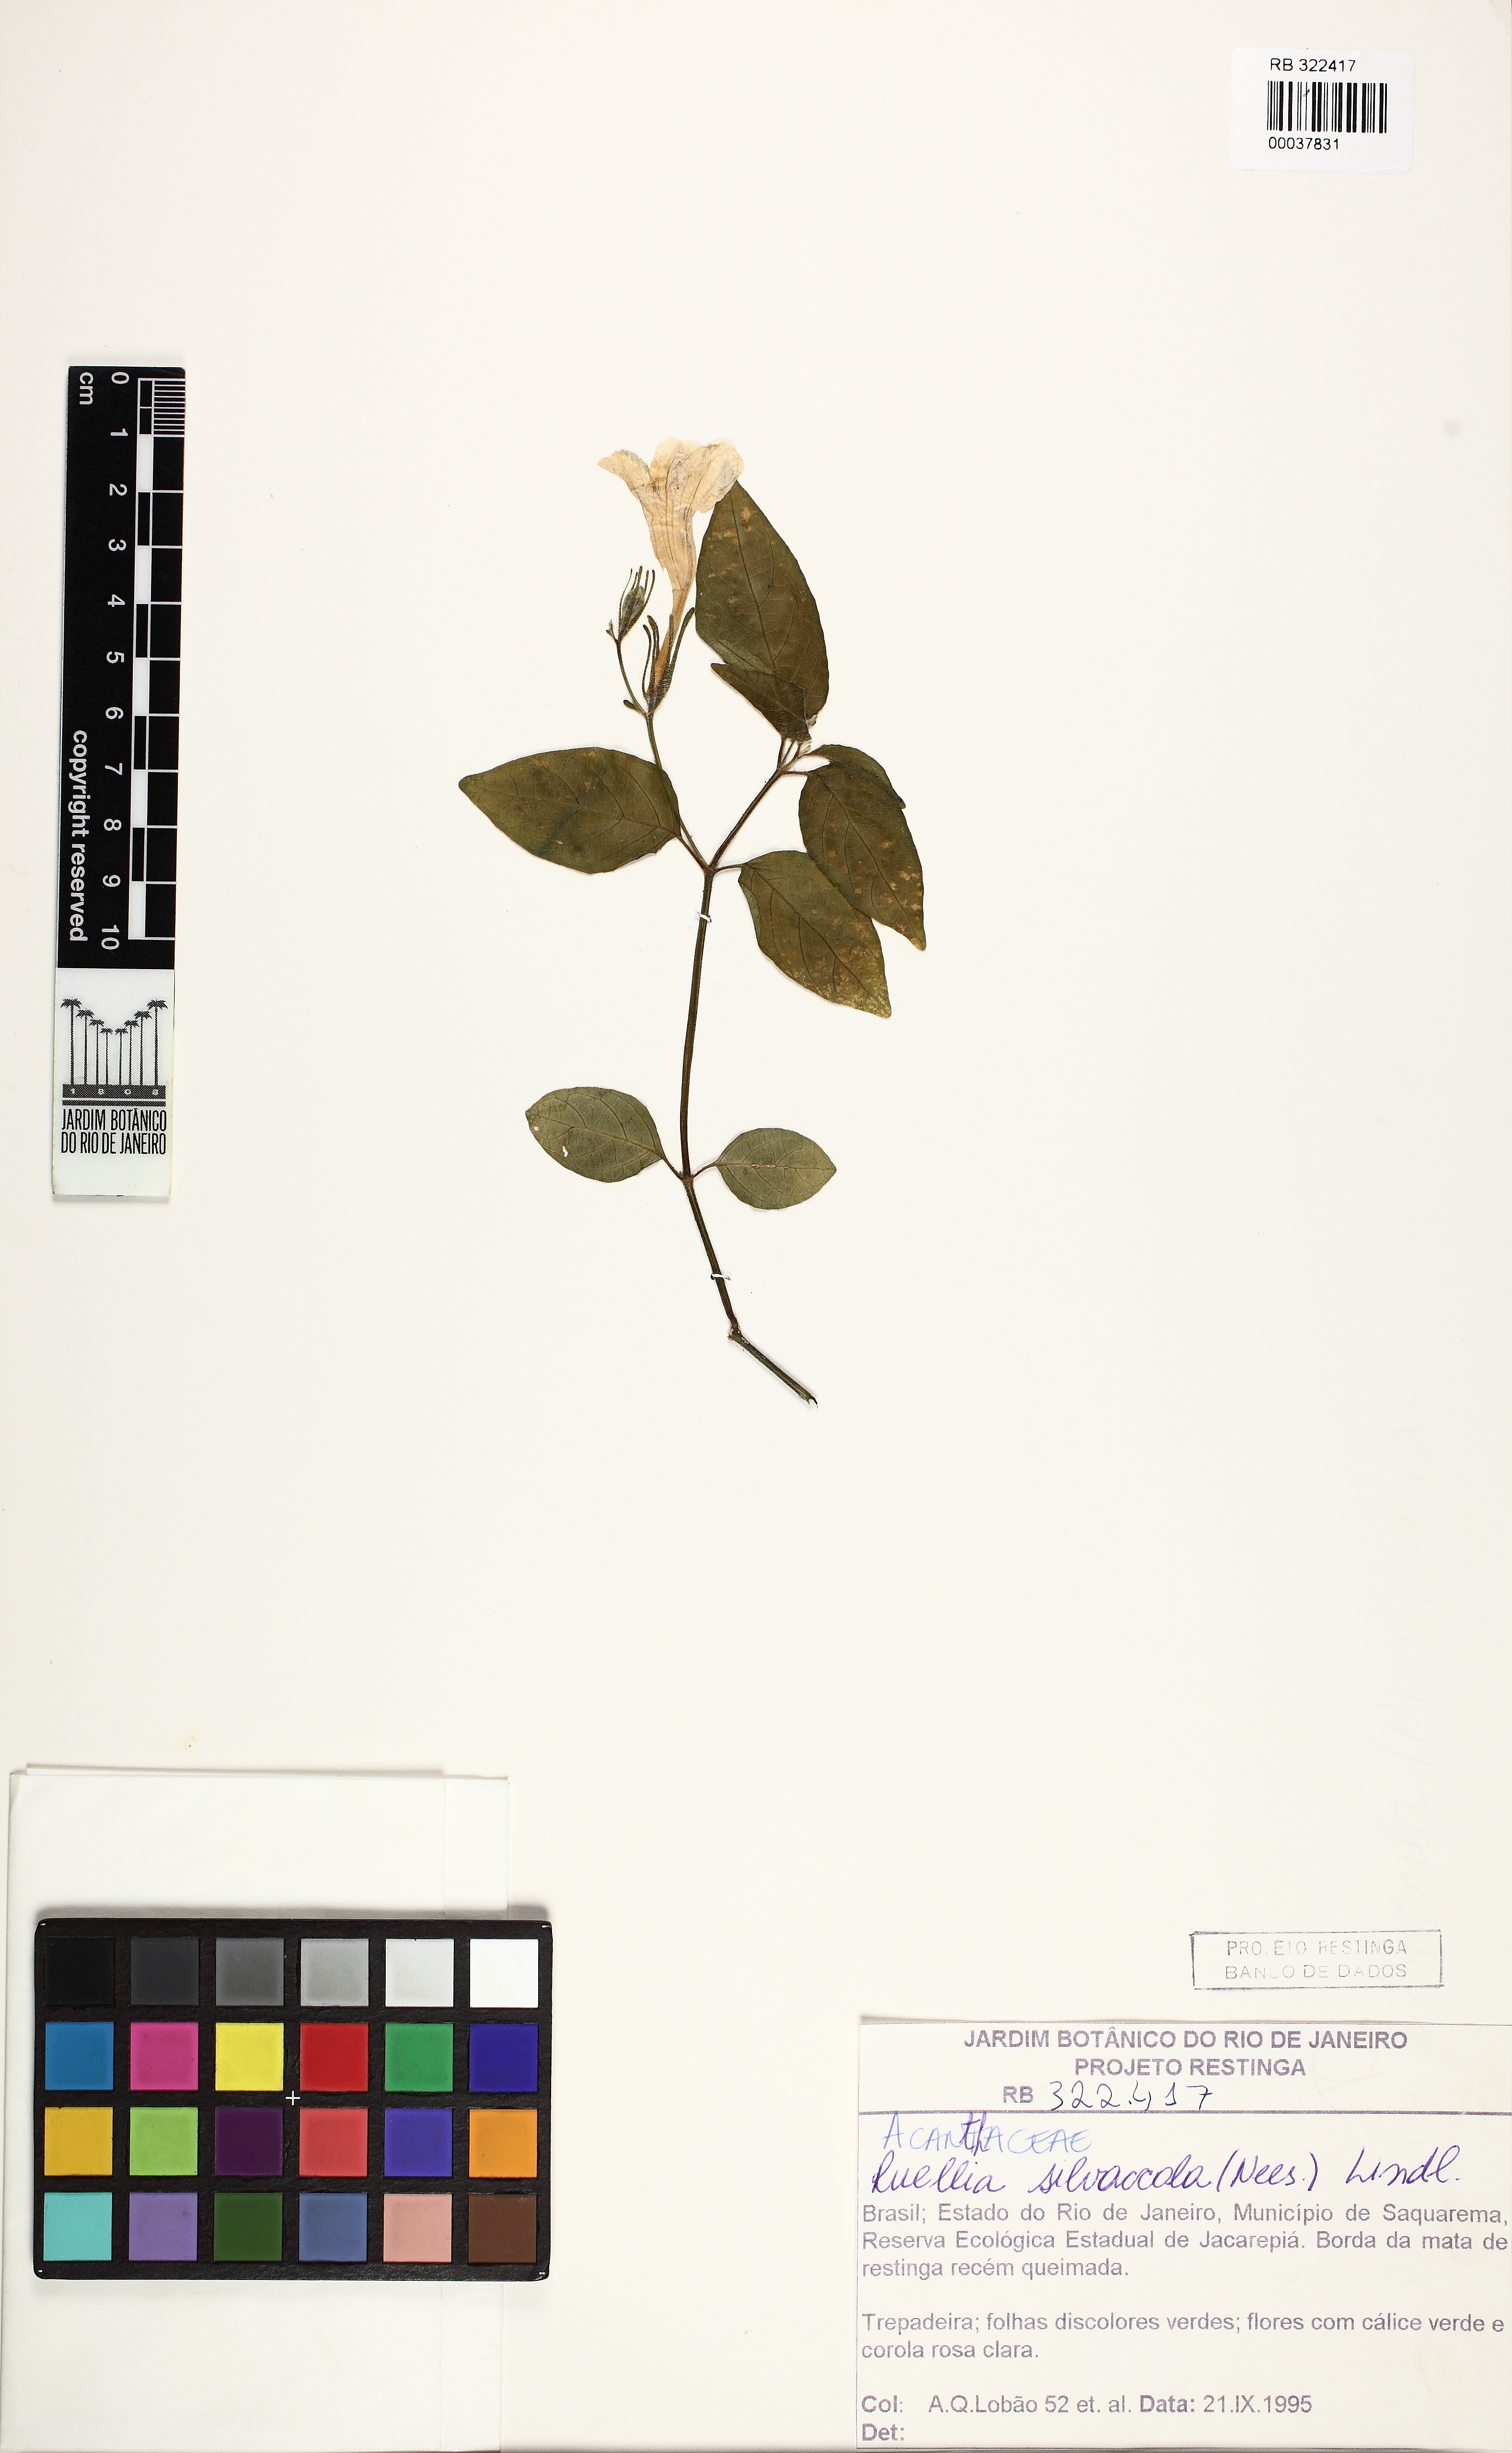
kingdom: Plantae
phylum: Tracheophyta
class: Magnoliopsida
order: Lamiales
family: Acanthaceae
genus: Ruellia
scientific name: Ruellia silvaccola
